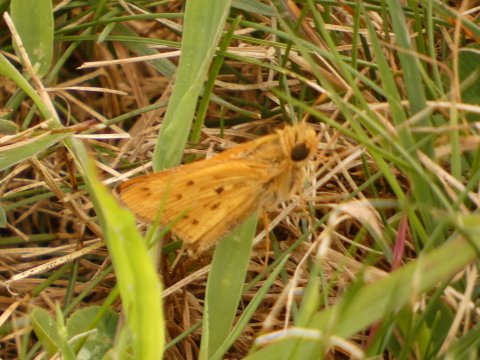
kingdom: Animalia
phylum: Arthropoda
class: Insecta
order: Lepidoptera
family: Hesperiidae
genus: Hylephila
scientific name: Hylephila phyleus
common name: Fiery Skipper
